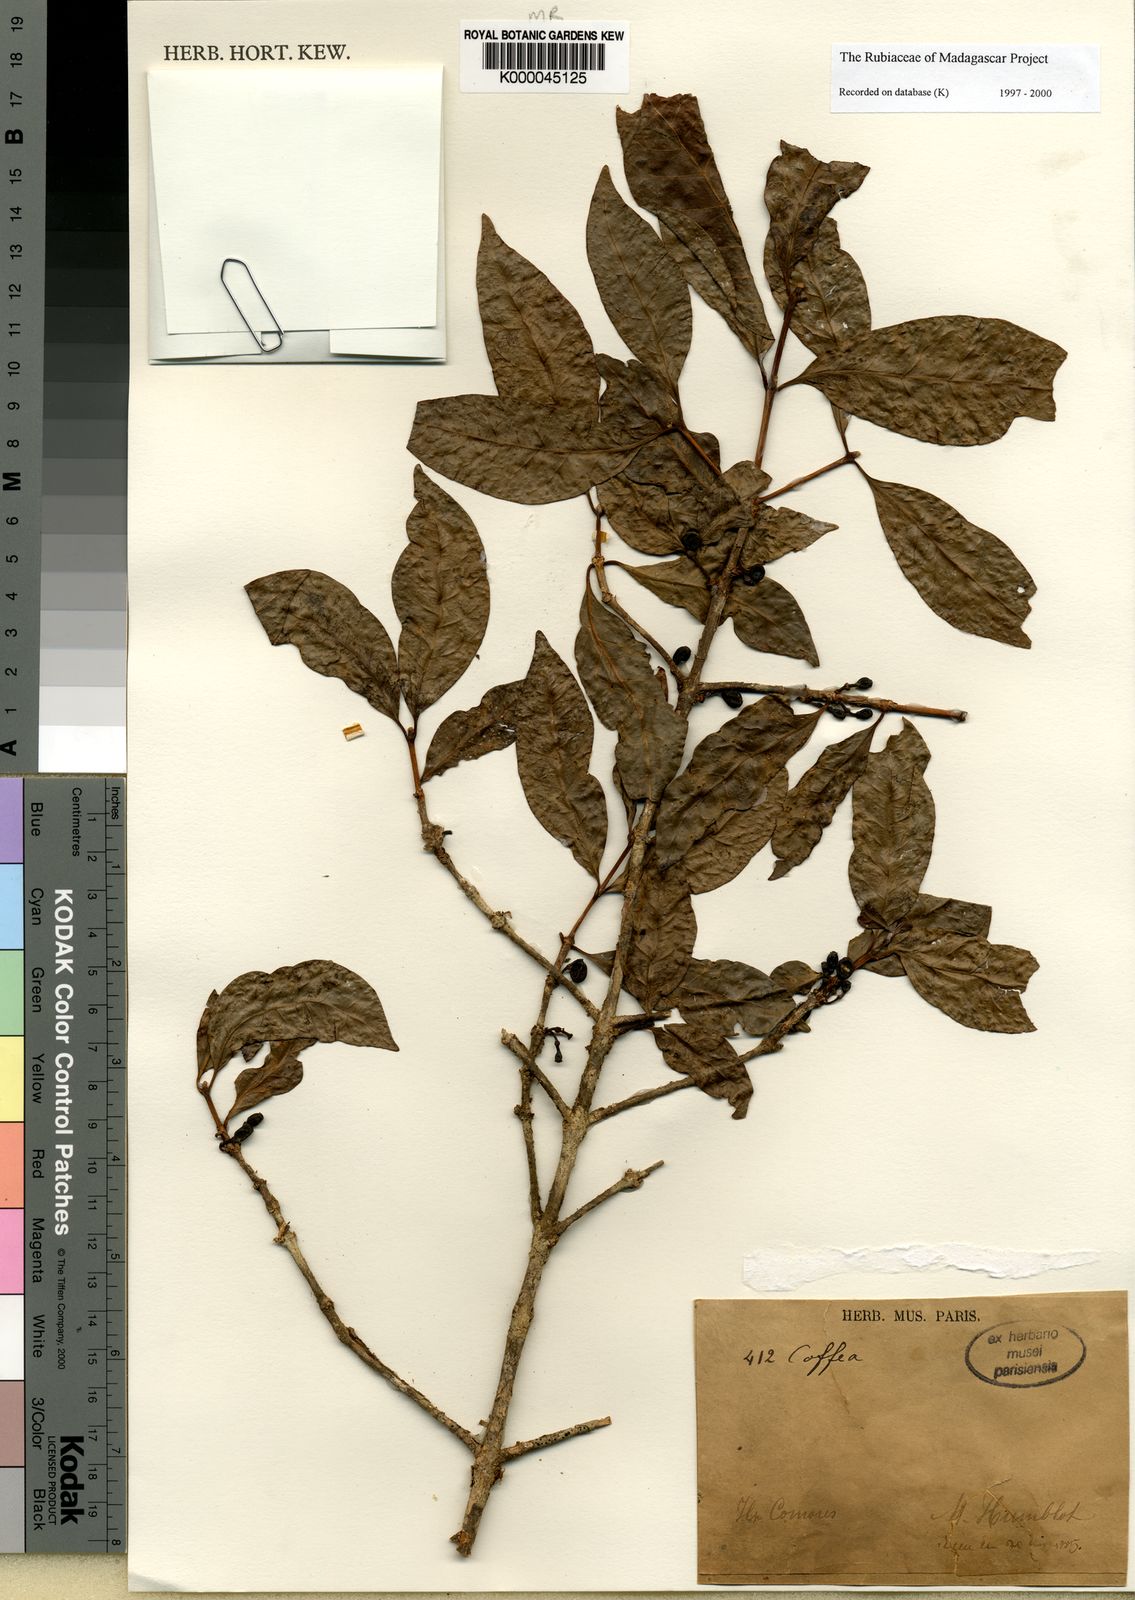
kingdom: Plantae
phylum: Tracheophyta
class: Magnoliopsida
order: Gentianales
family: Rubiaceae
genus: Coffea
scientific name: Coffea humblotiana
